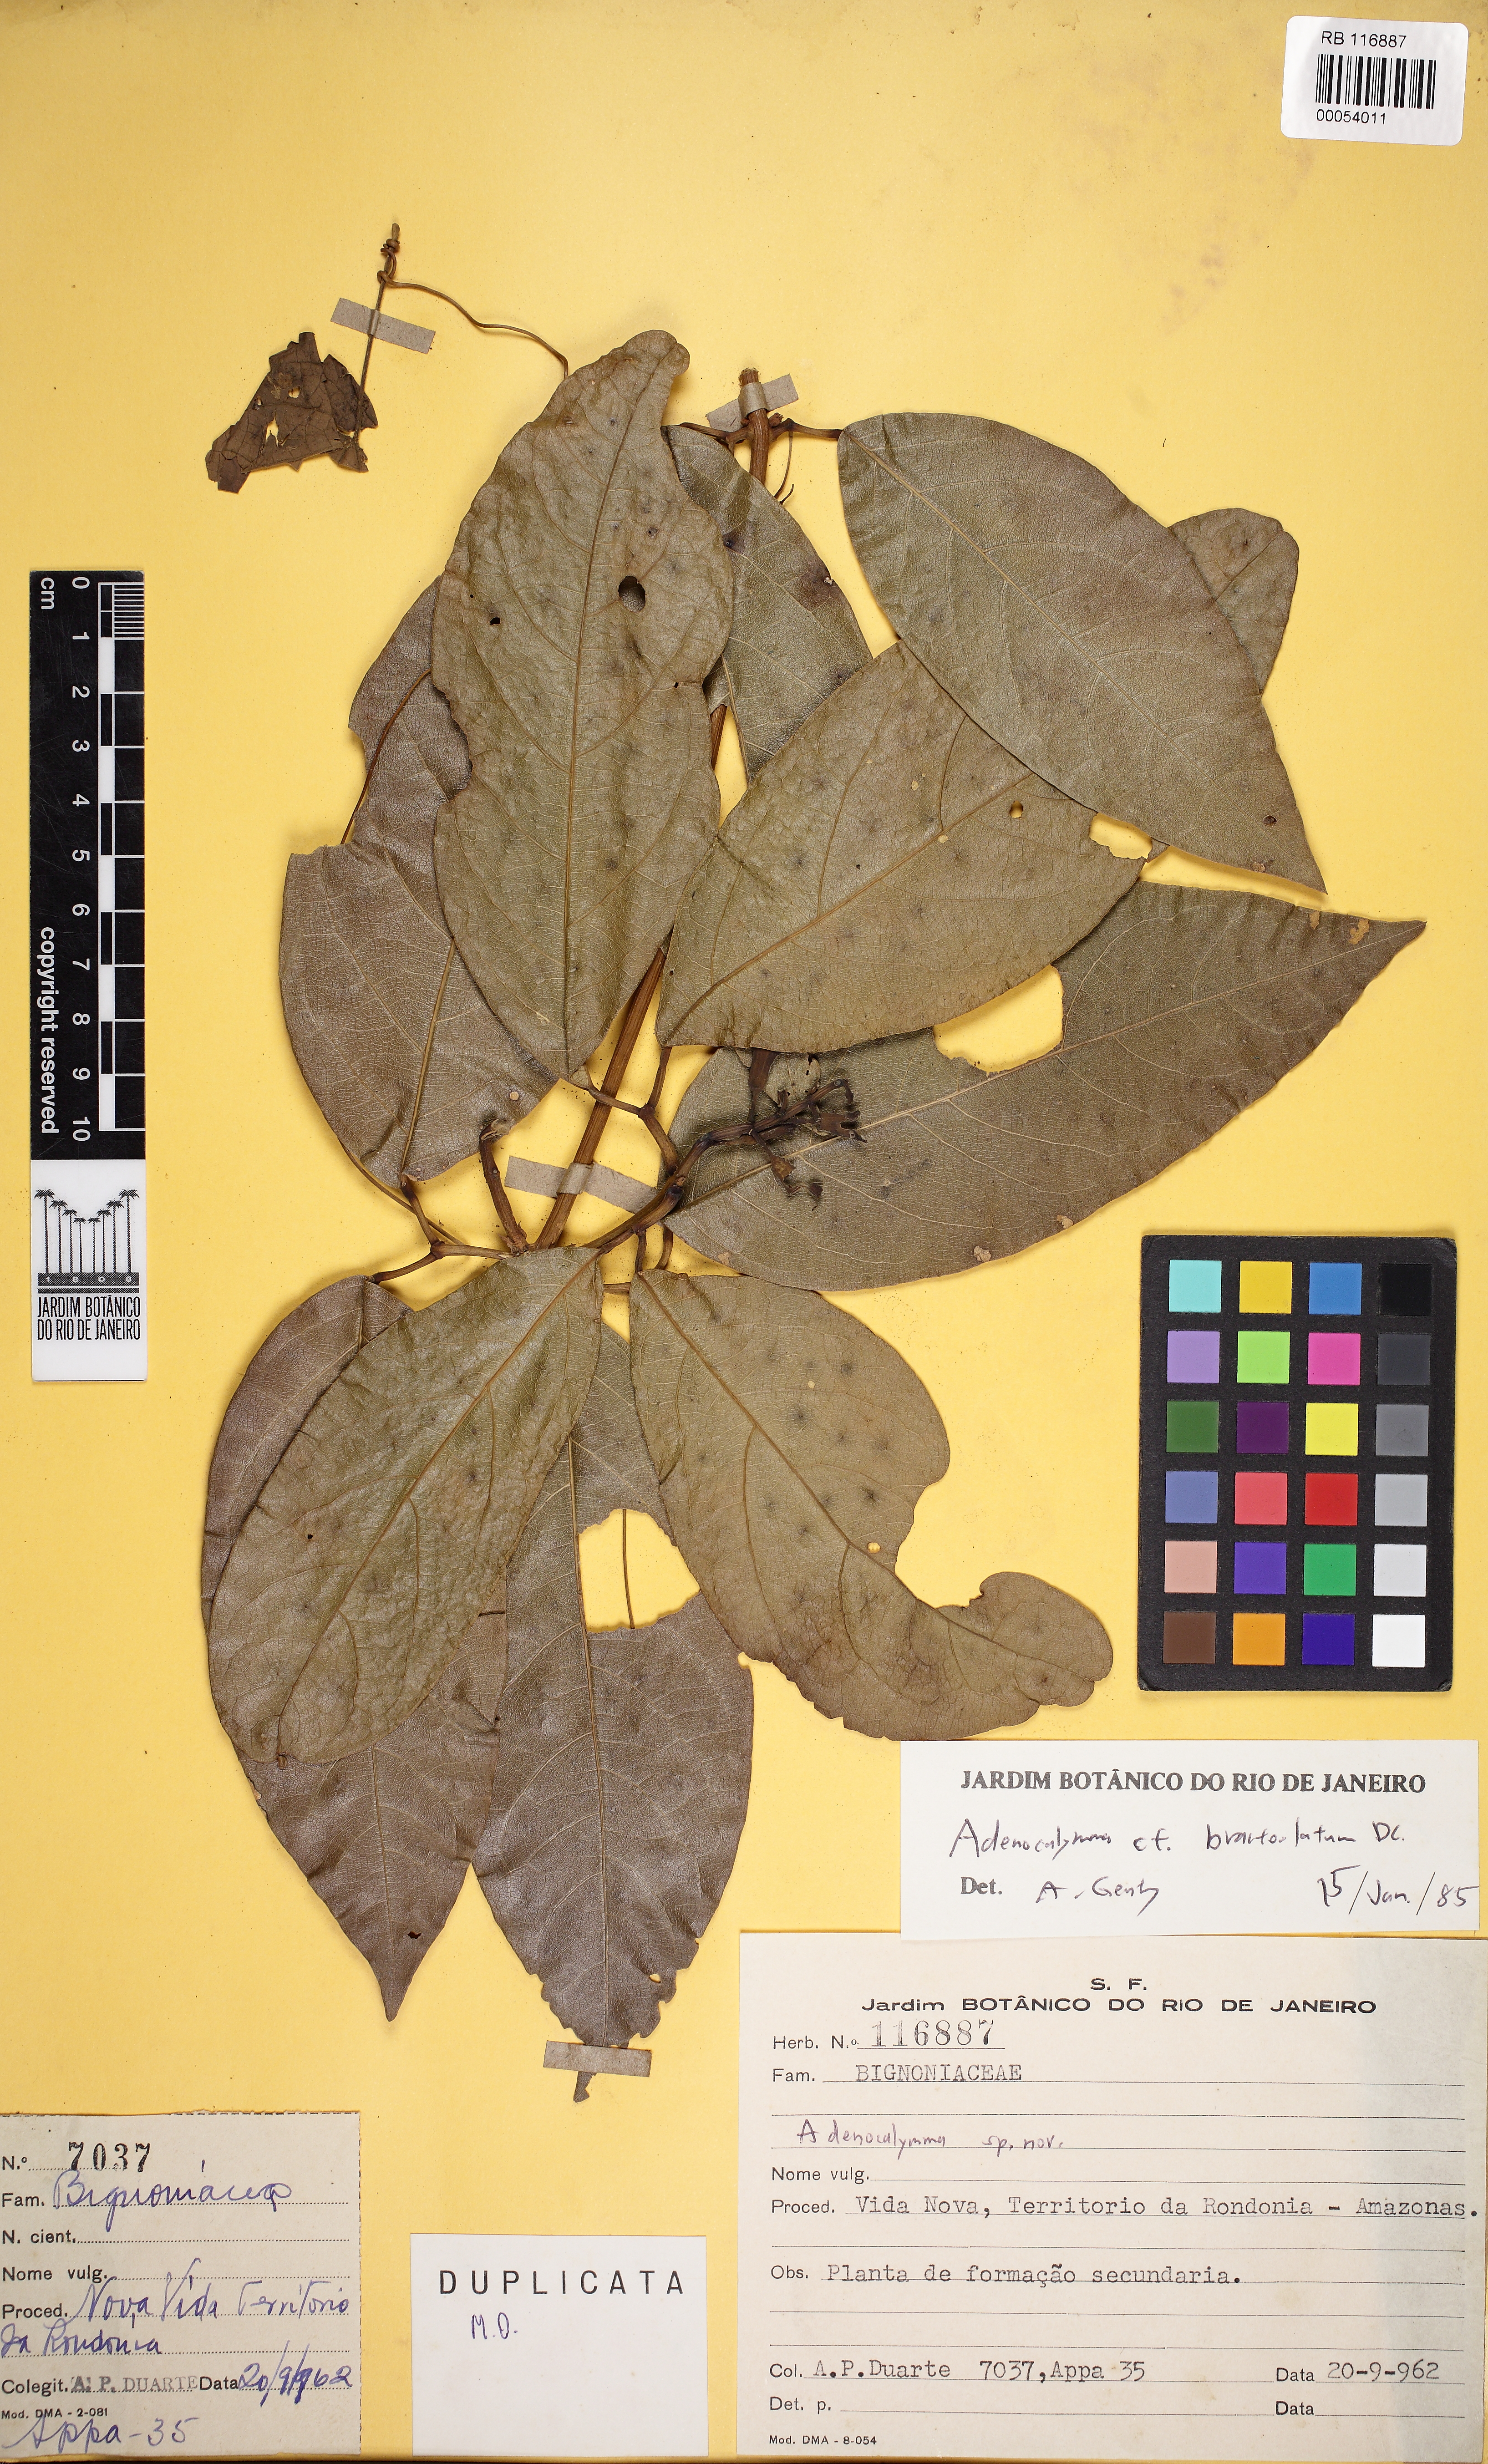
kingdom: Plantae
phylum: Tracheophyta
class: Magnoliopsida
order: Lamiales
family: Bignoniaceae
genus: Adenocalymma
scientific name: Adenocalymma calcareum
